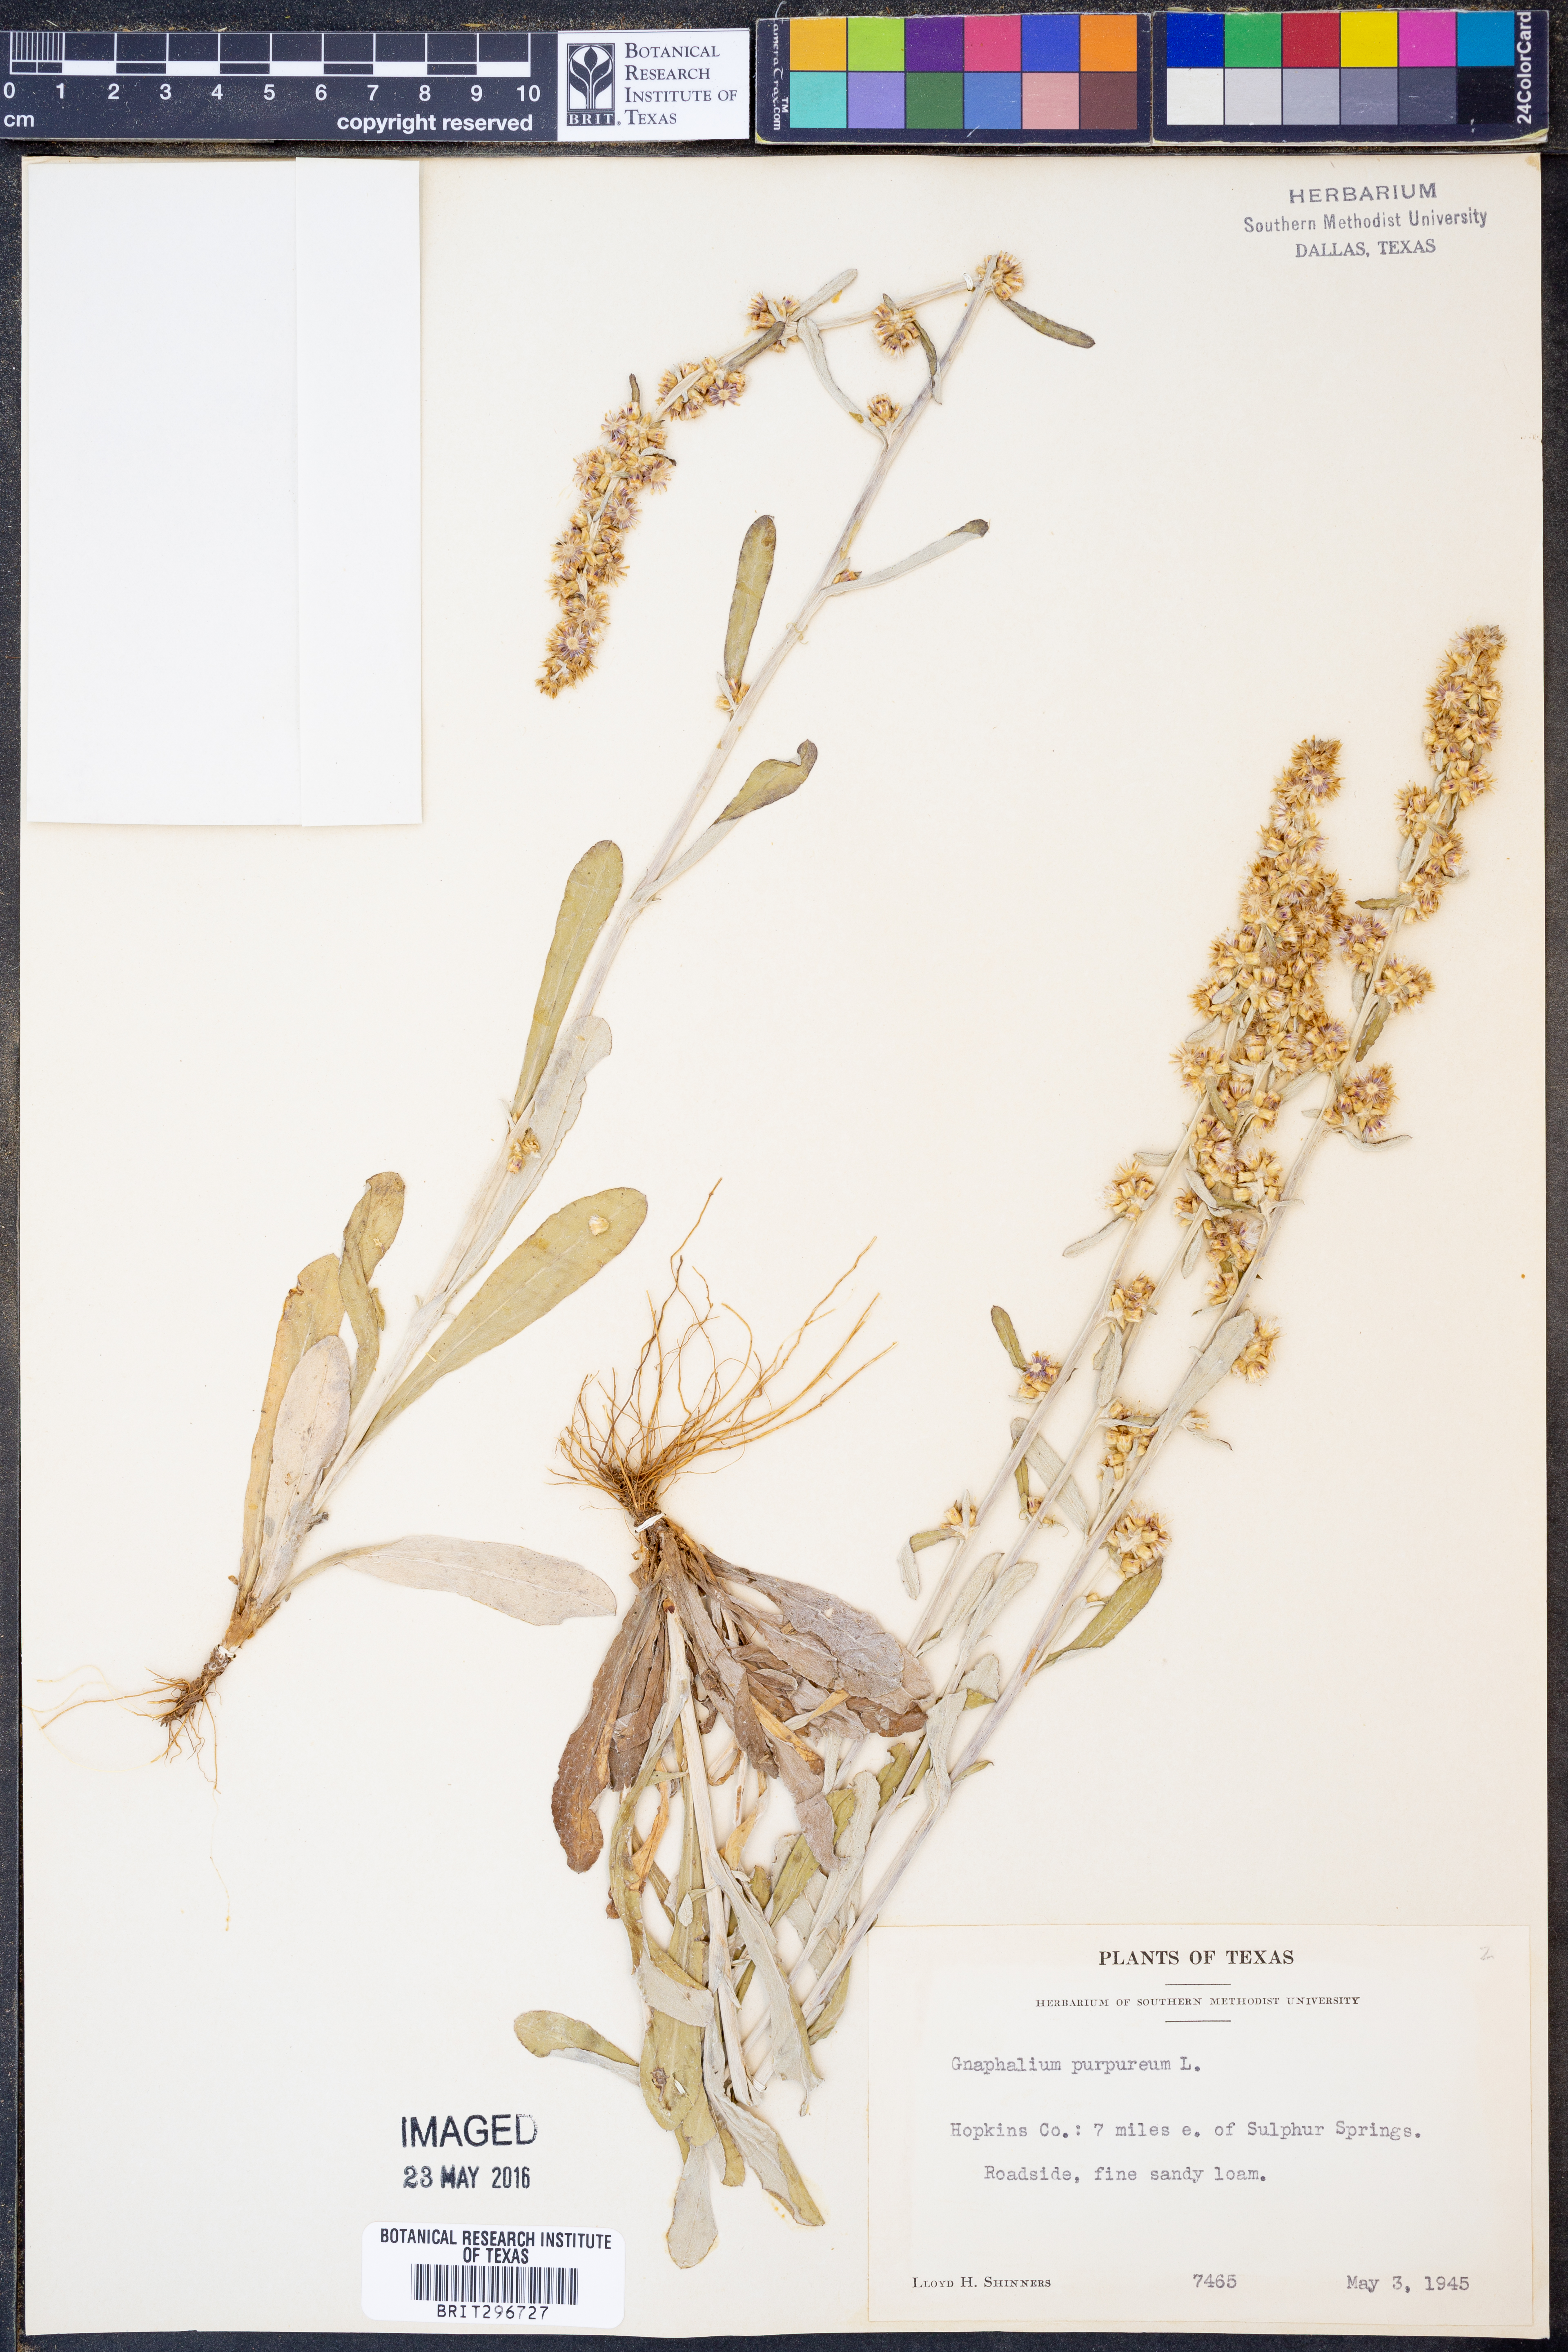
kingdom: Plantae
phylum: Tracheophyta
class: Magnoliopsida
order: Asterales
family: Asteraceae
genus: Gamochaeta
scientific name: Gamochaeta purpurea
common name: Purple cudweed
